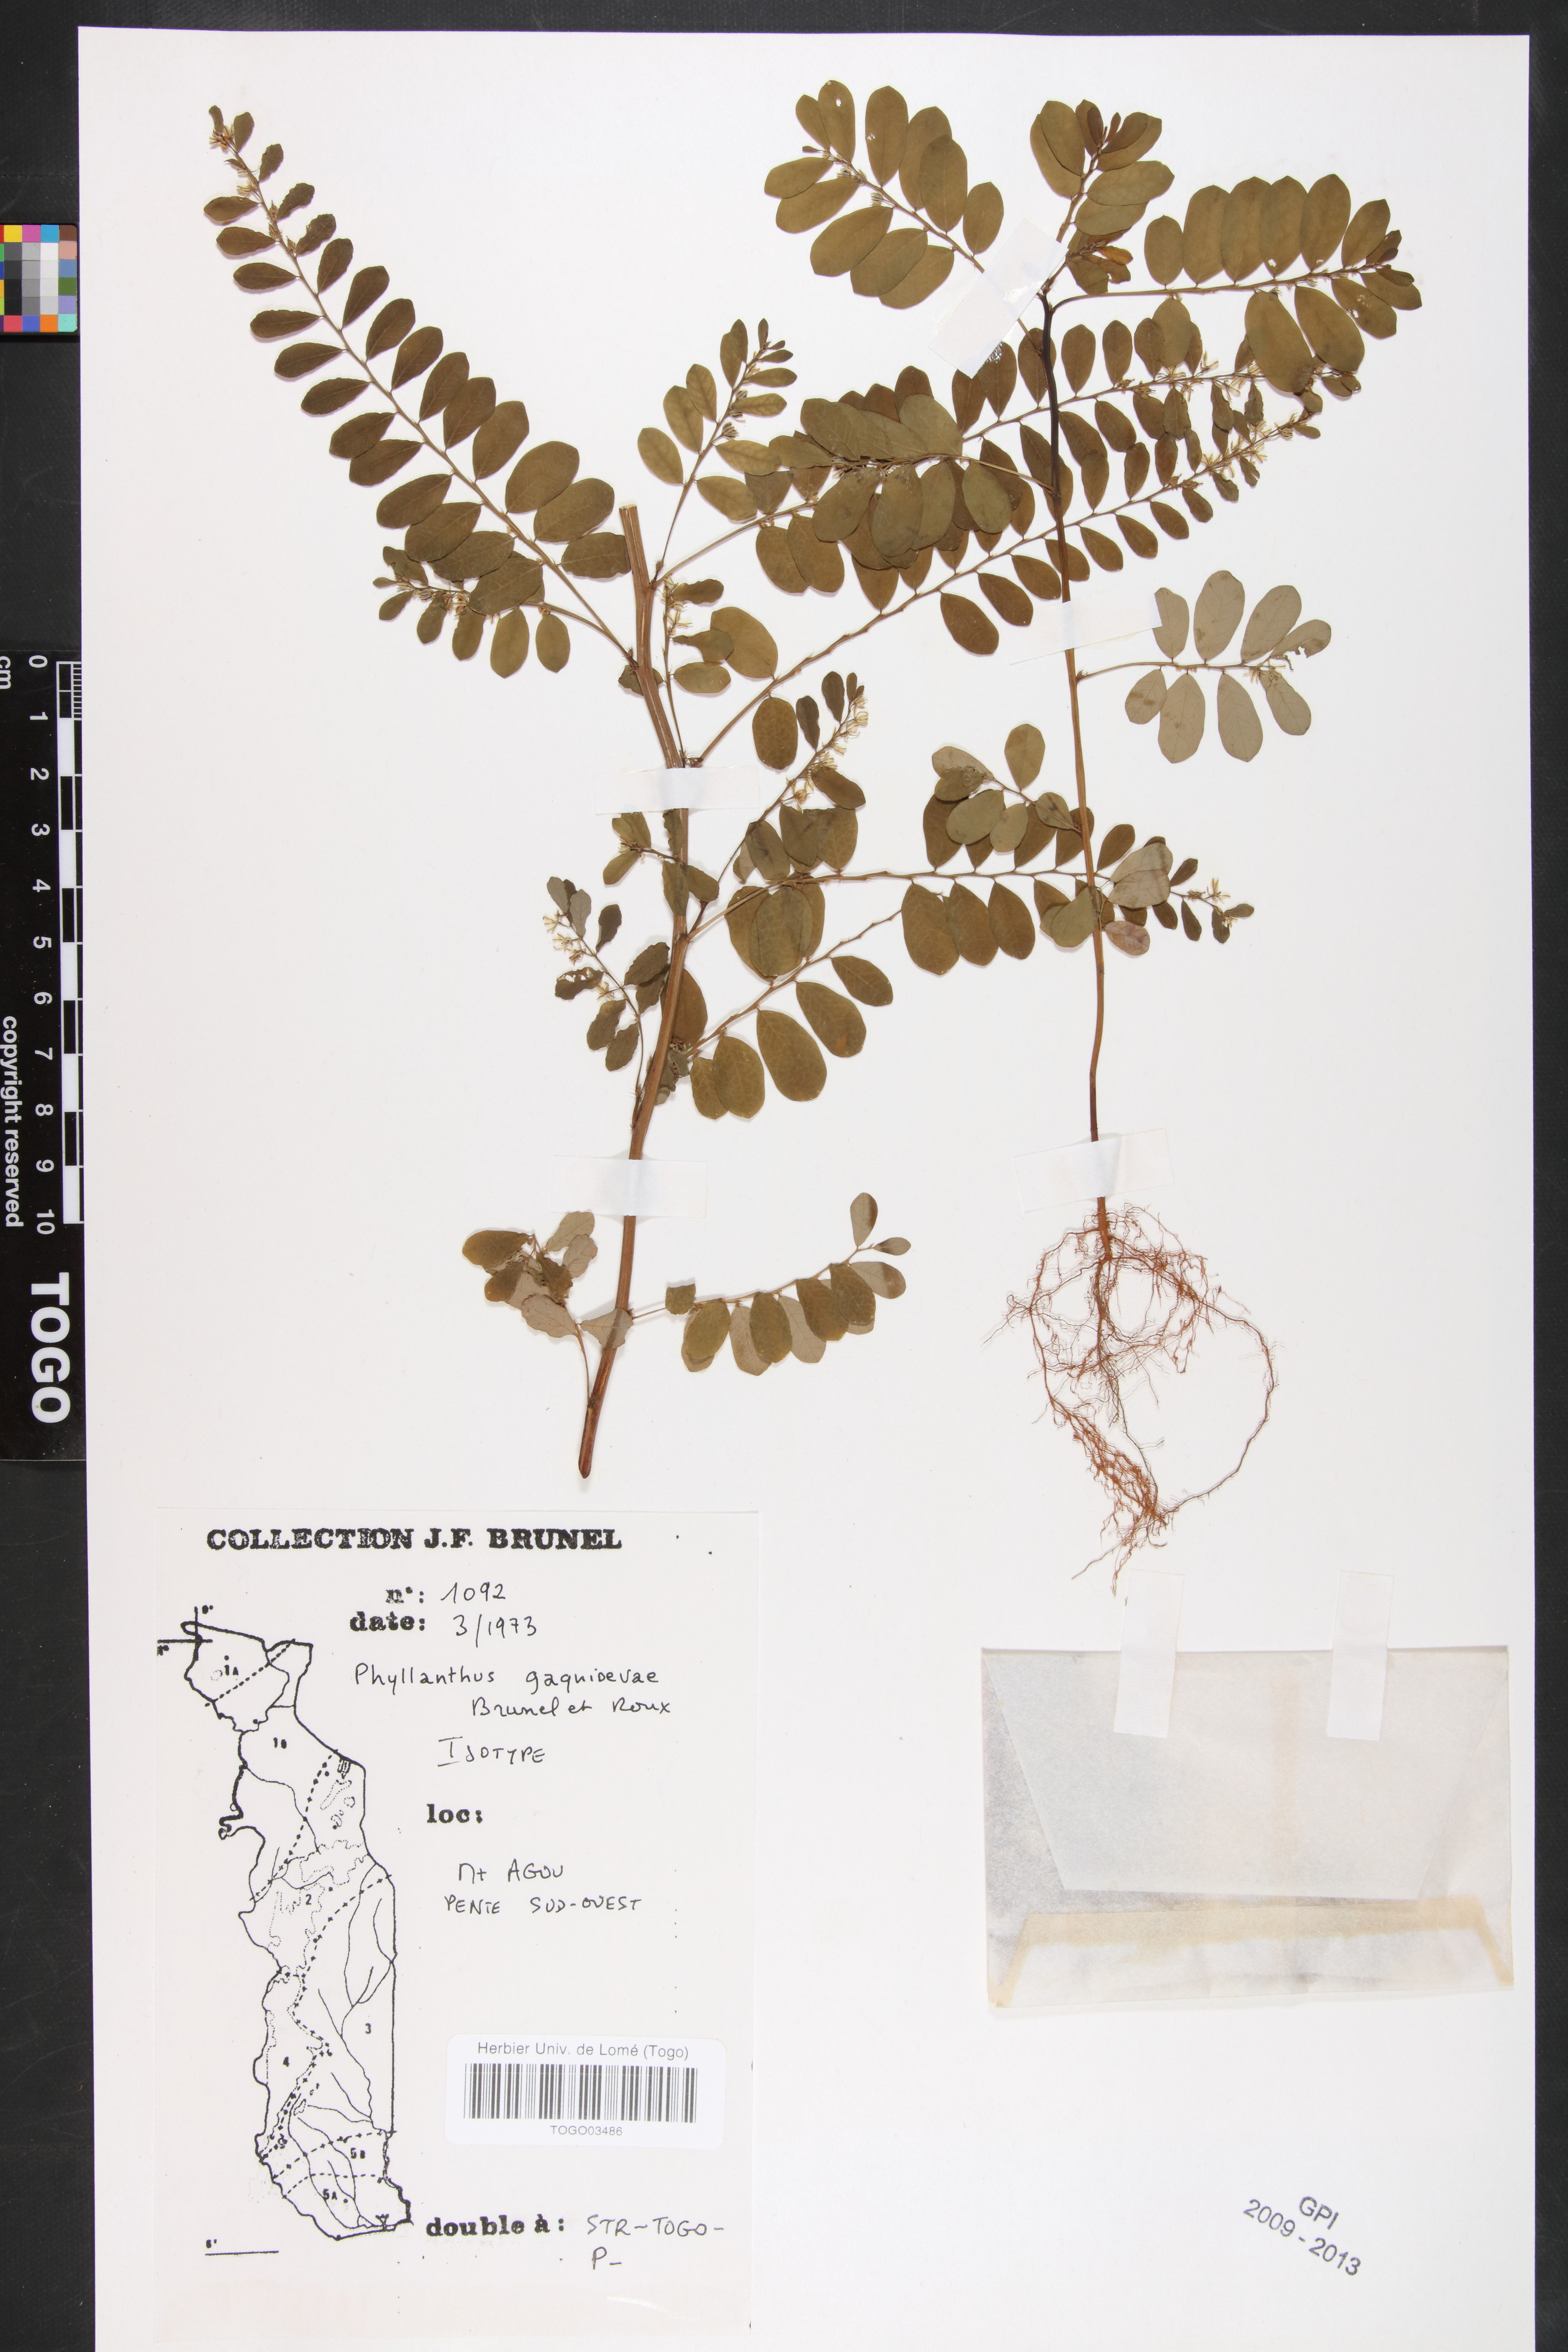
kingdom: Plantae
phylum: Tracheophyta
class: Magnoliopsida
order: Malpighiales
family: Phyllanthaceae
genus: Phyllanthus
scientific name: Phyllanthus gagnioevae
